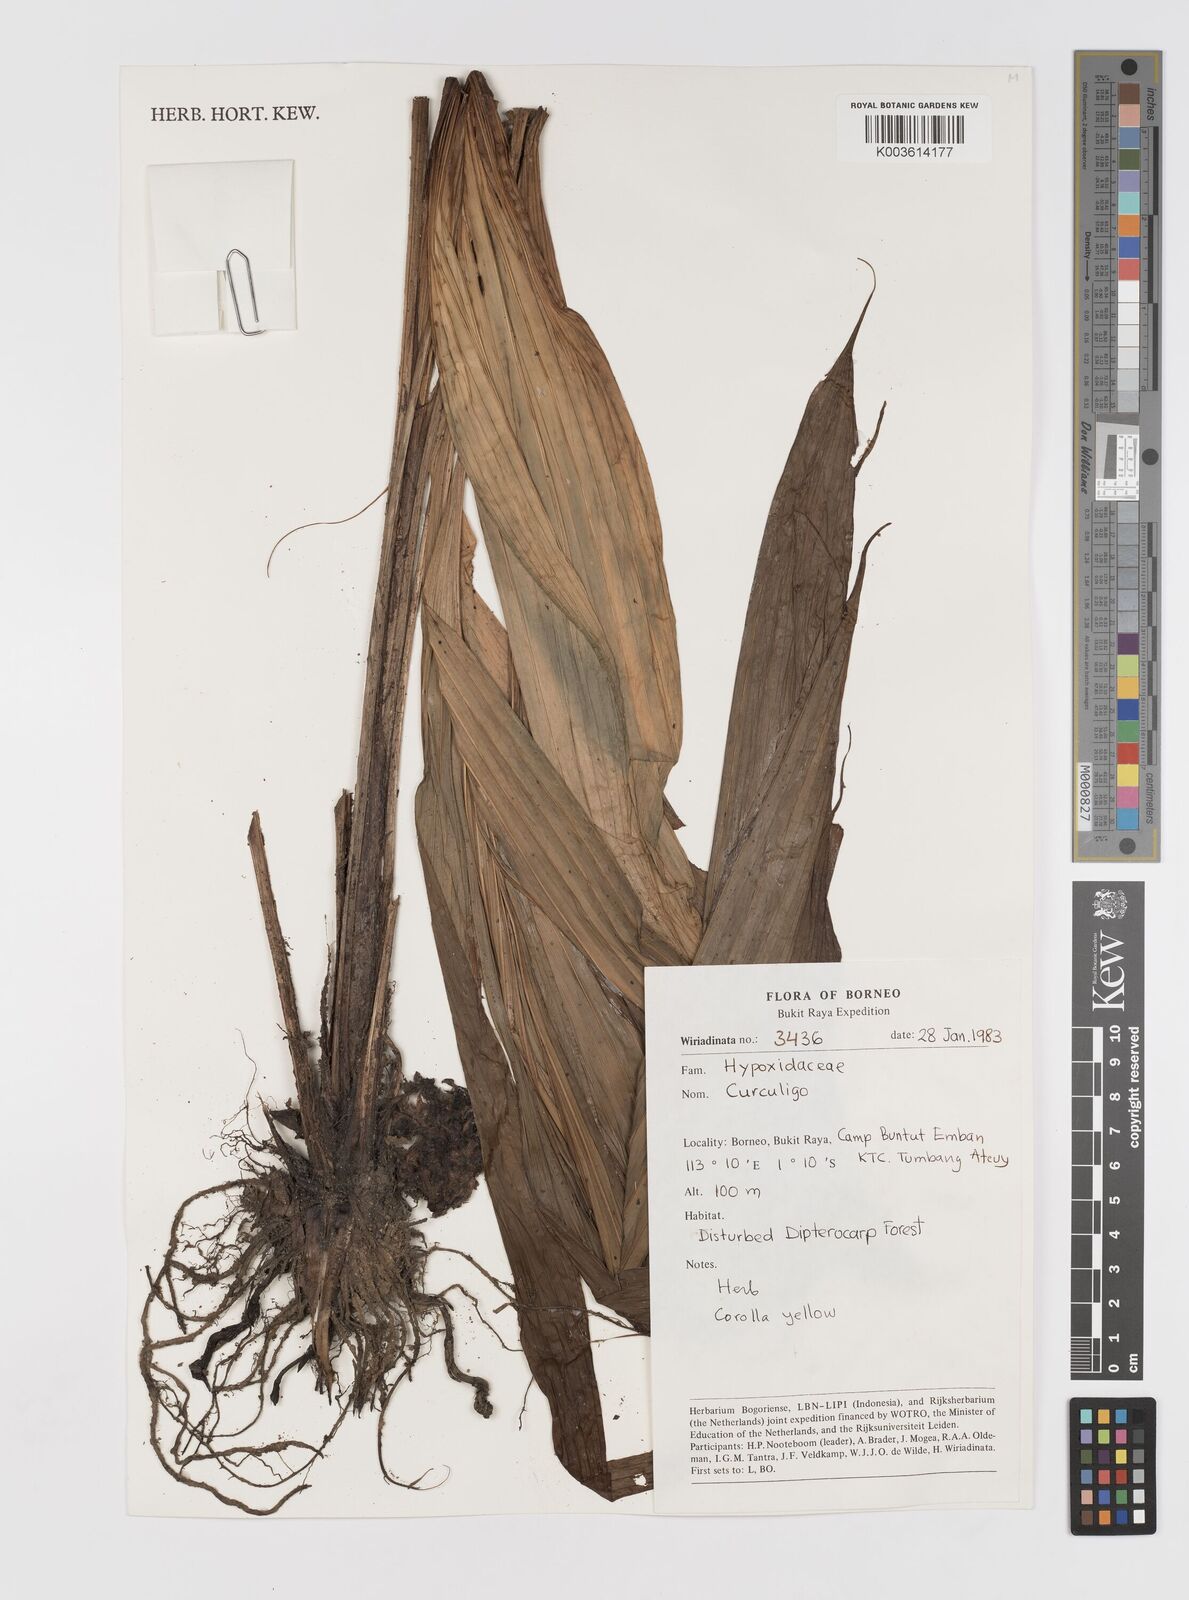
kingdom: Plantae
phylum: Tracheophyta
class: Liliopsida
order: Asparagales
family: Hypoxidaceae
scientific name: Hypoxidaceae
